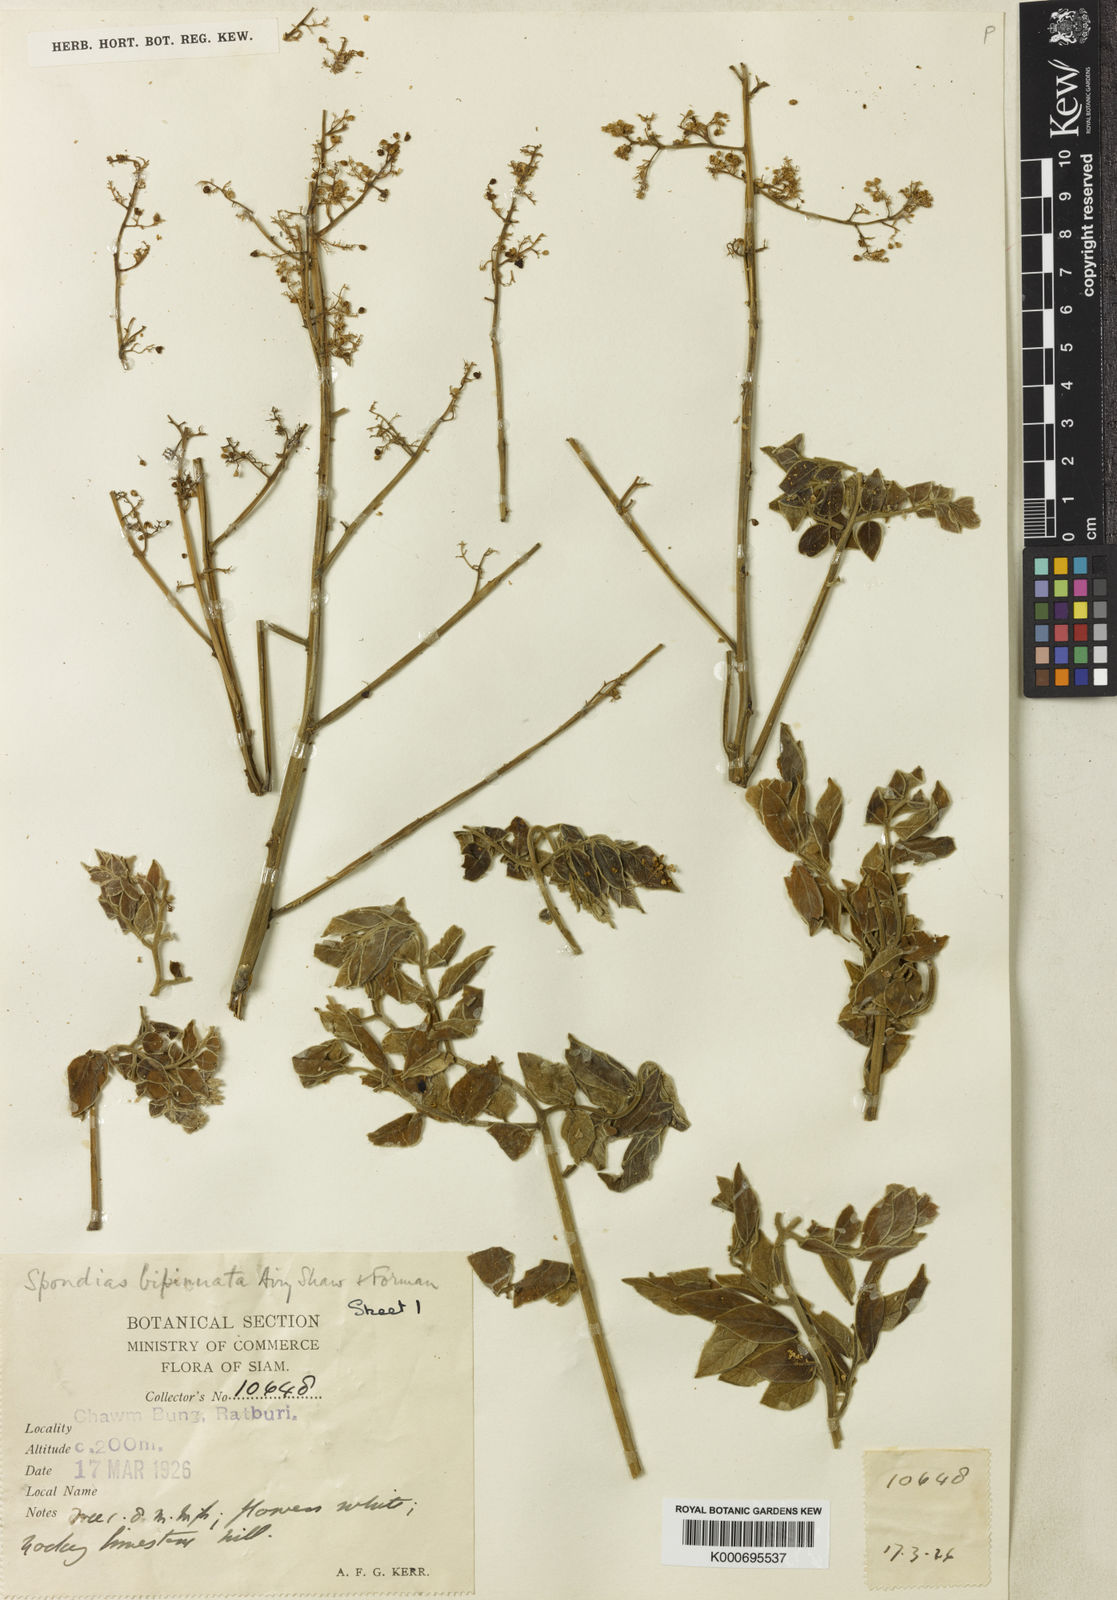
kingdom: Plantae
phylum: Tracheophyta
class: Magnoliopsida
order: Sapindales
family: Anacardiaceae
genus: Spondias
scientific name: Spondias bipinnata
